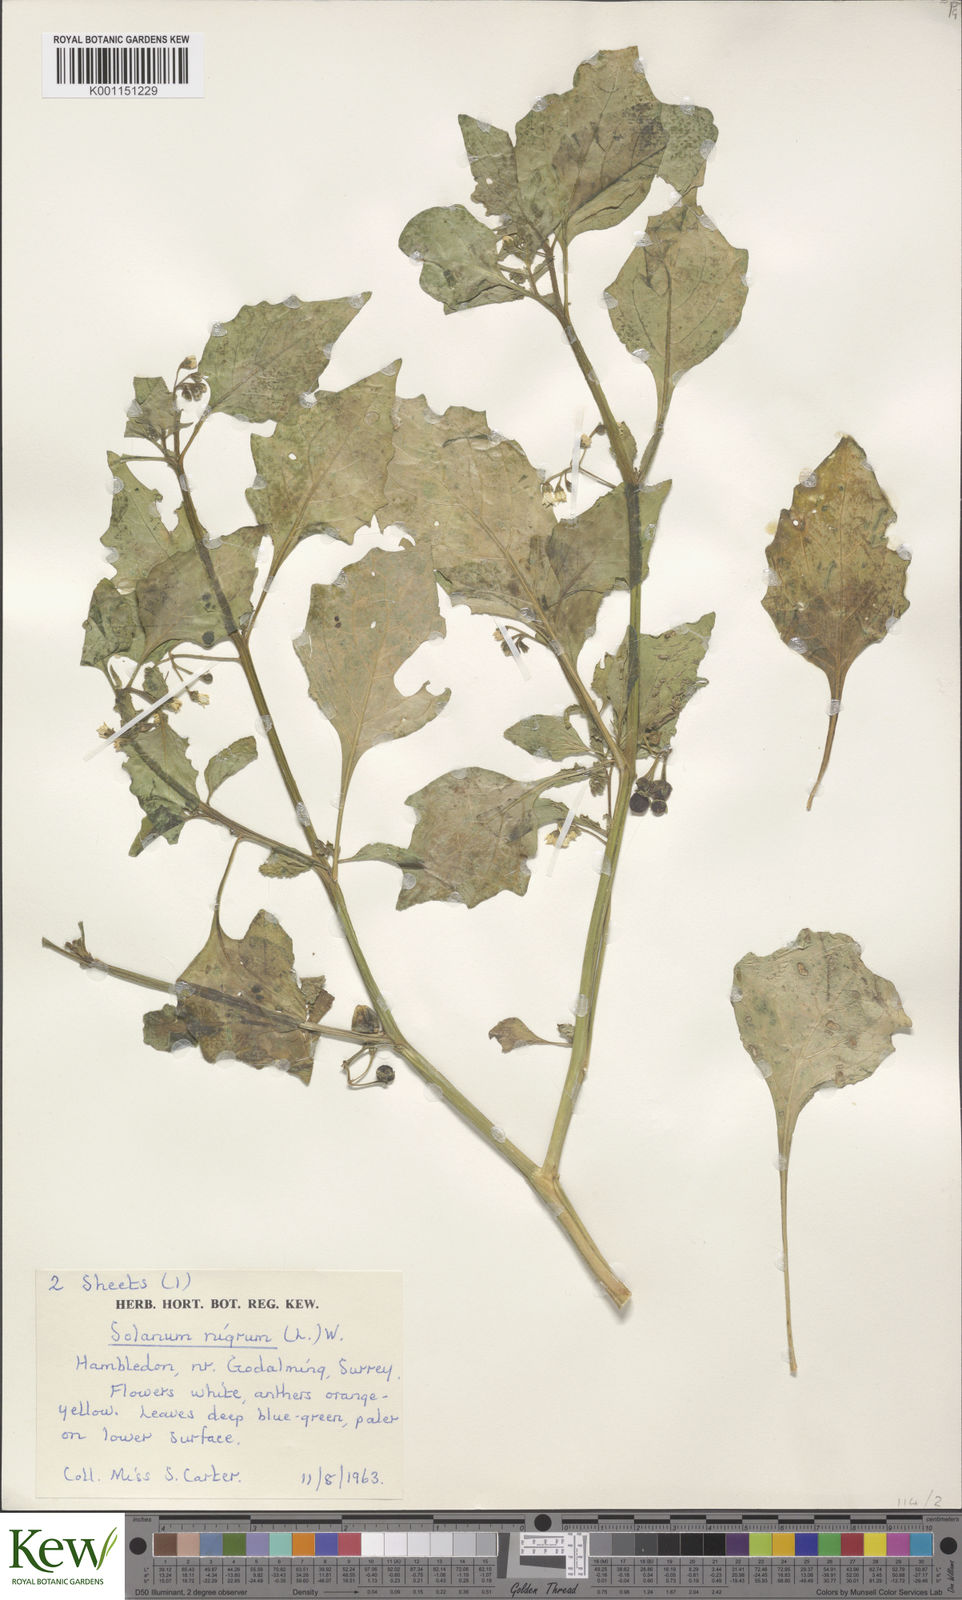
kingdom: Plantae
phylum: Tracheophyta
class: Magnoliopsida
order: Solanales
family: Solanaceae
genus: Solanum
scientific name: Solanum nigrum
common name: Black nightshade
